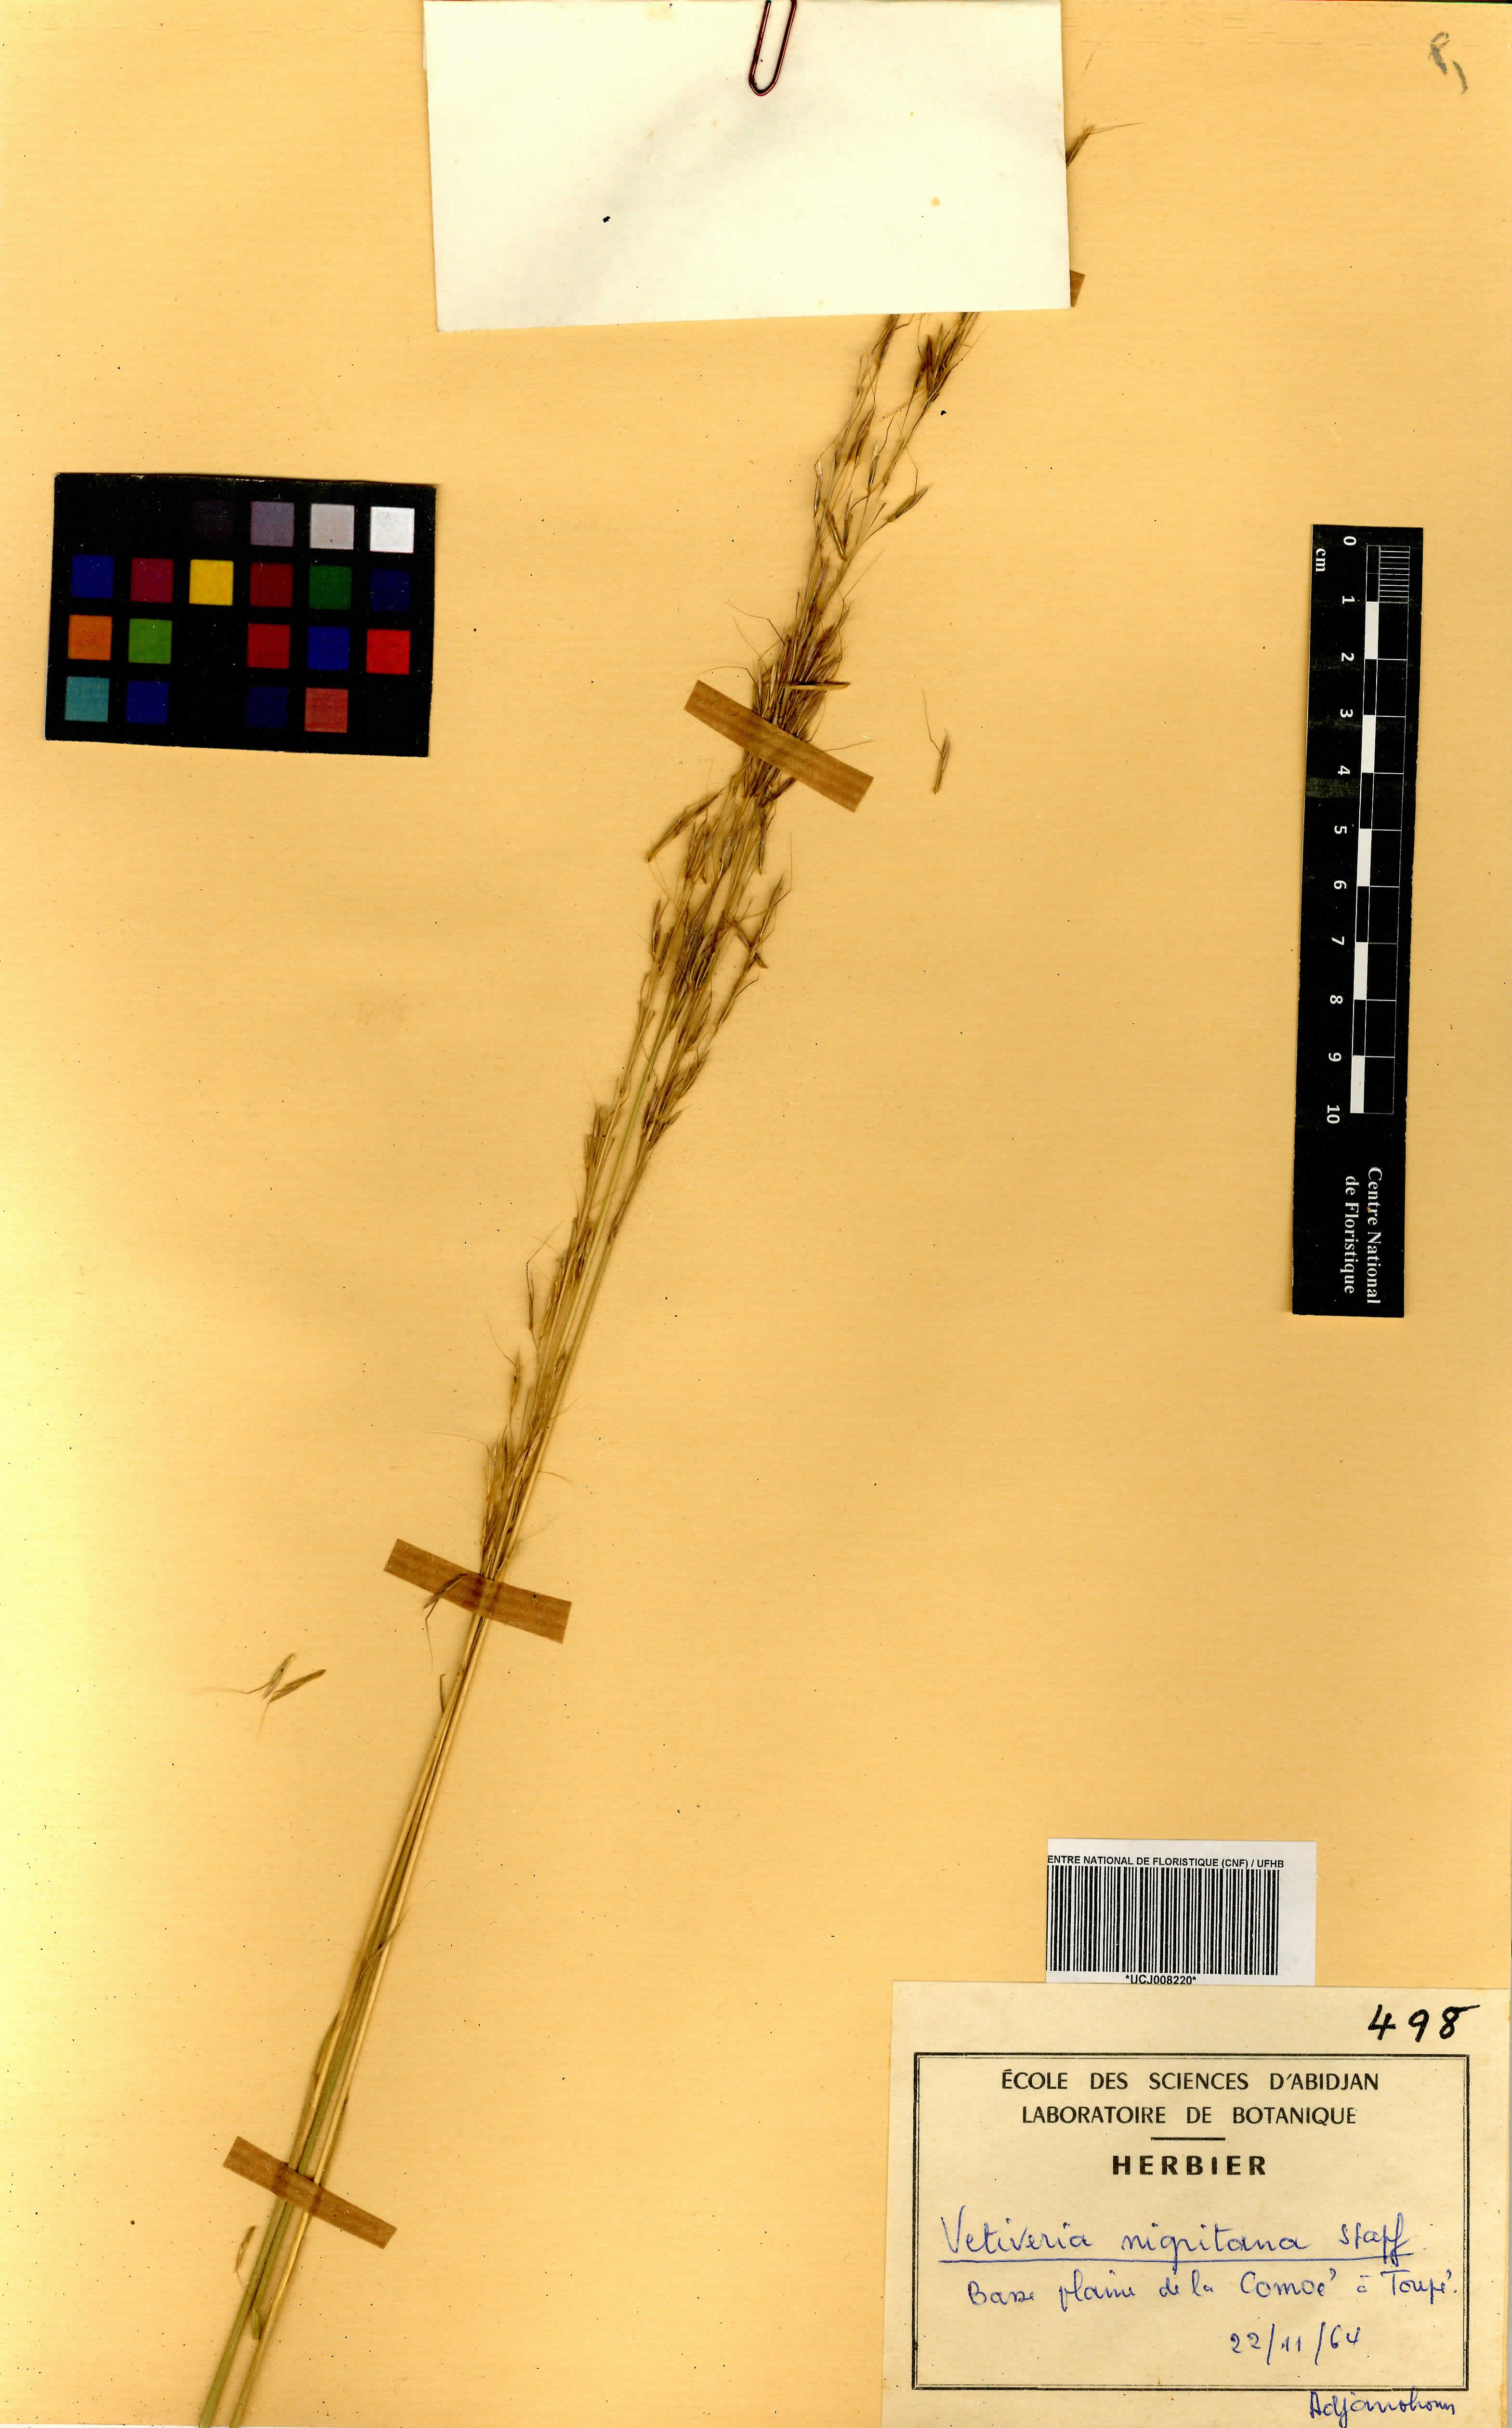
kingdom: Plantae
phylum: Tracheophyta
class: Liliopsida
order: Poales
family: Poaceae
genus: Chrysopogon
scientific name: Chrysopogon nigritanus
